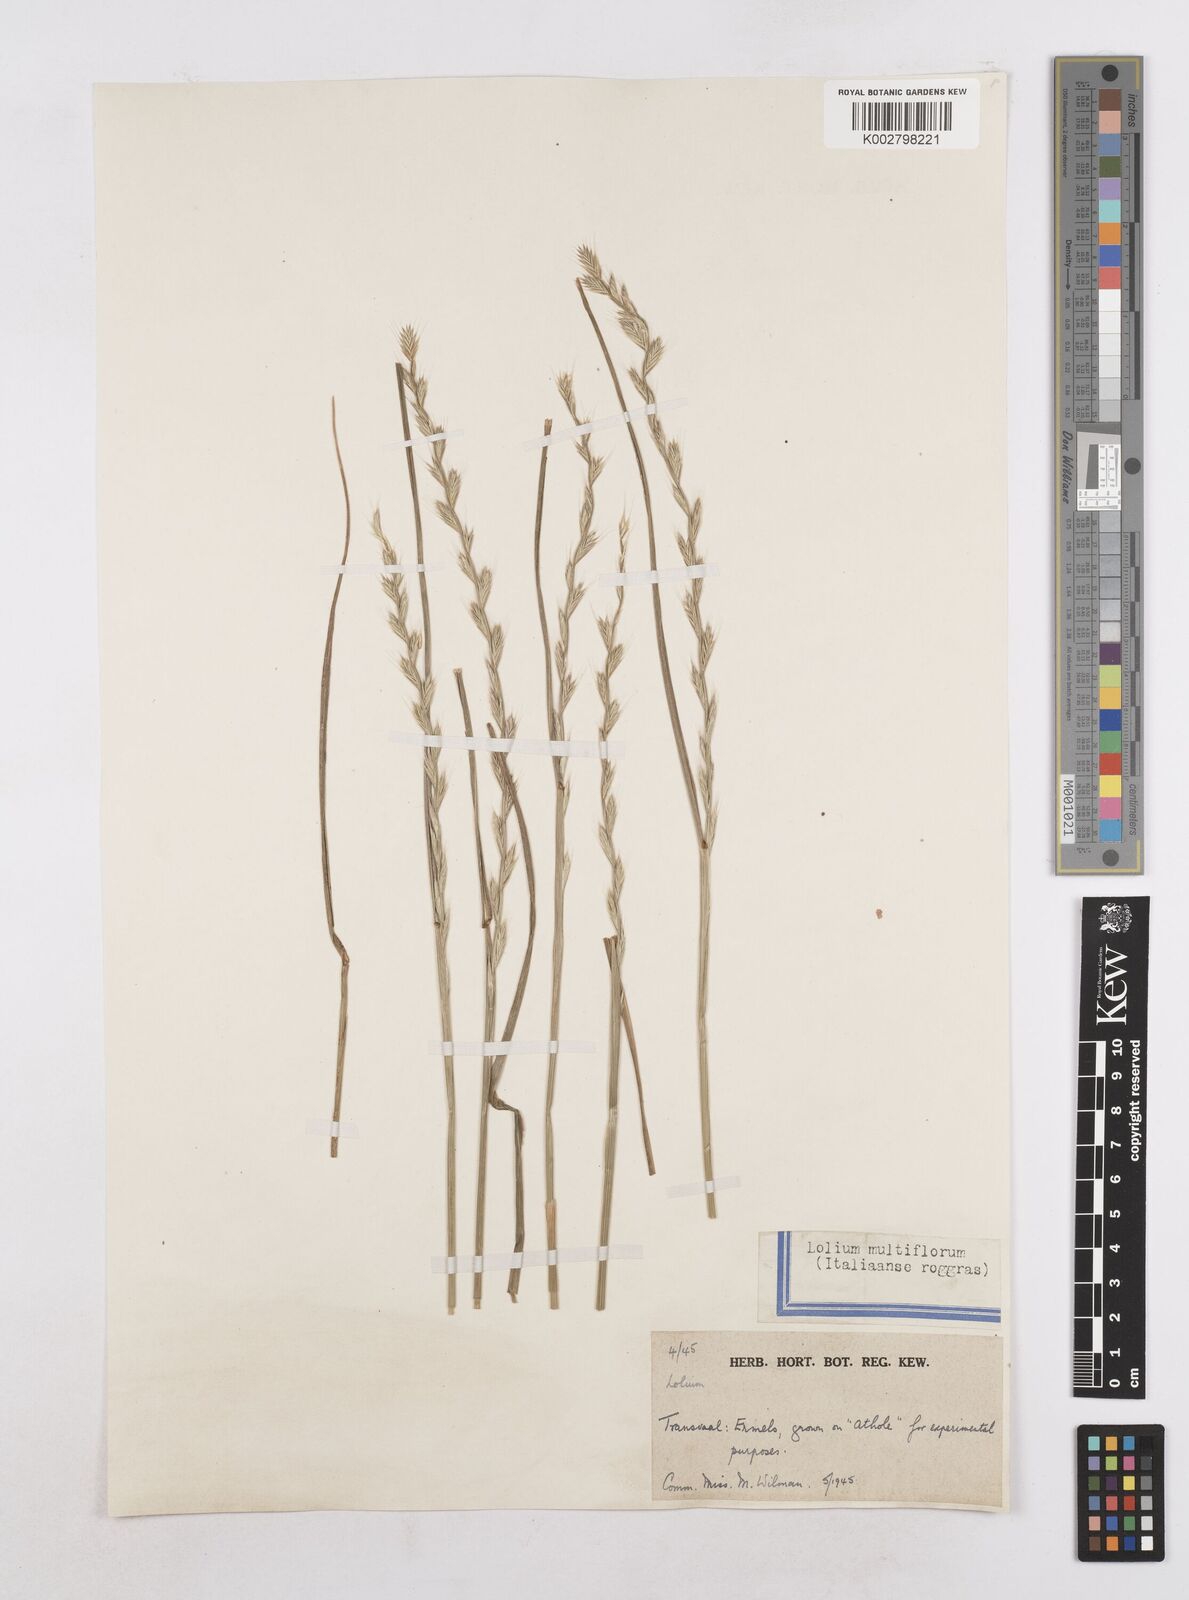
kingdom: Plantae
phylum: Tracheophyta
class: Liliopsida
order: Poales
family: Poaceae
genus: Lolium
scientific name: Lolium multiflorum
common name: Annual ryegrass
